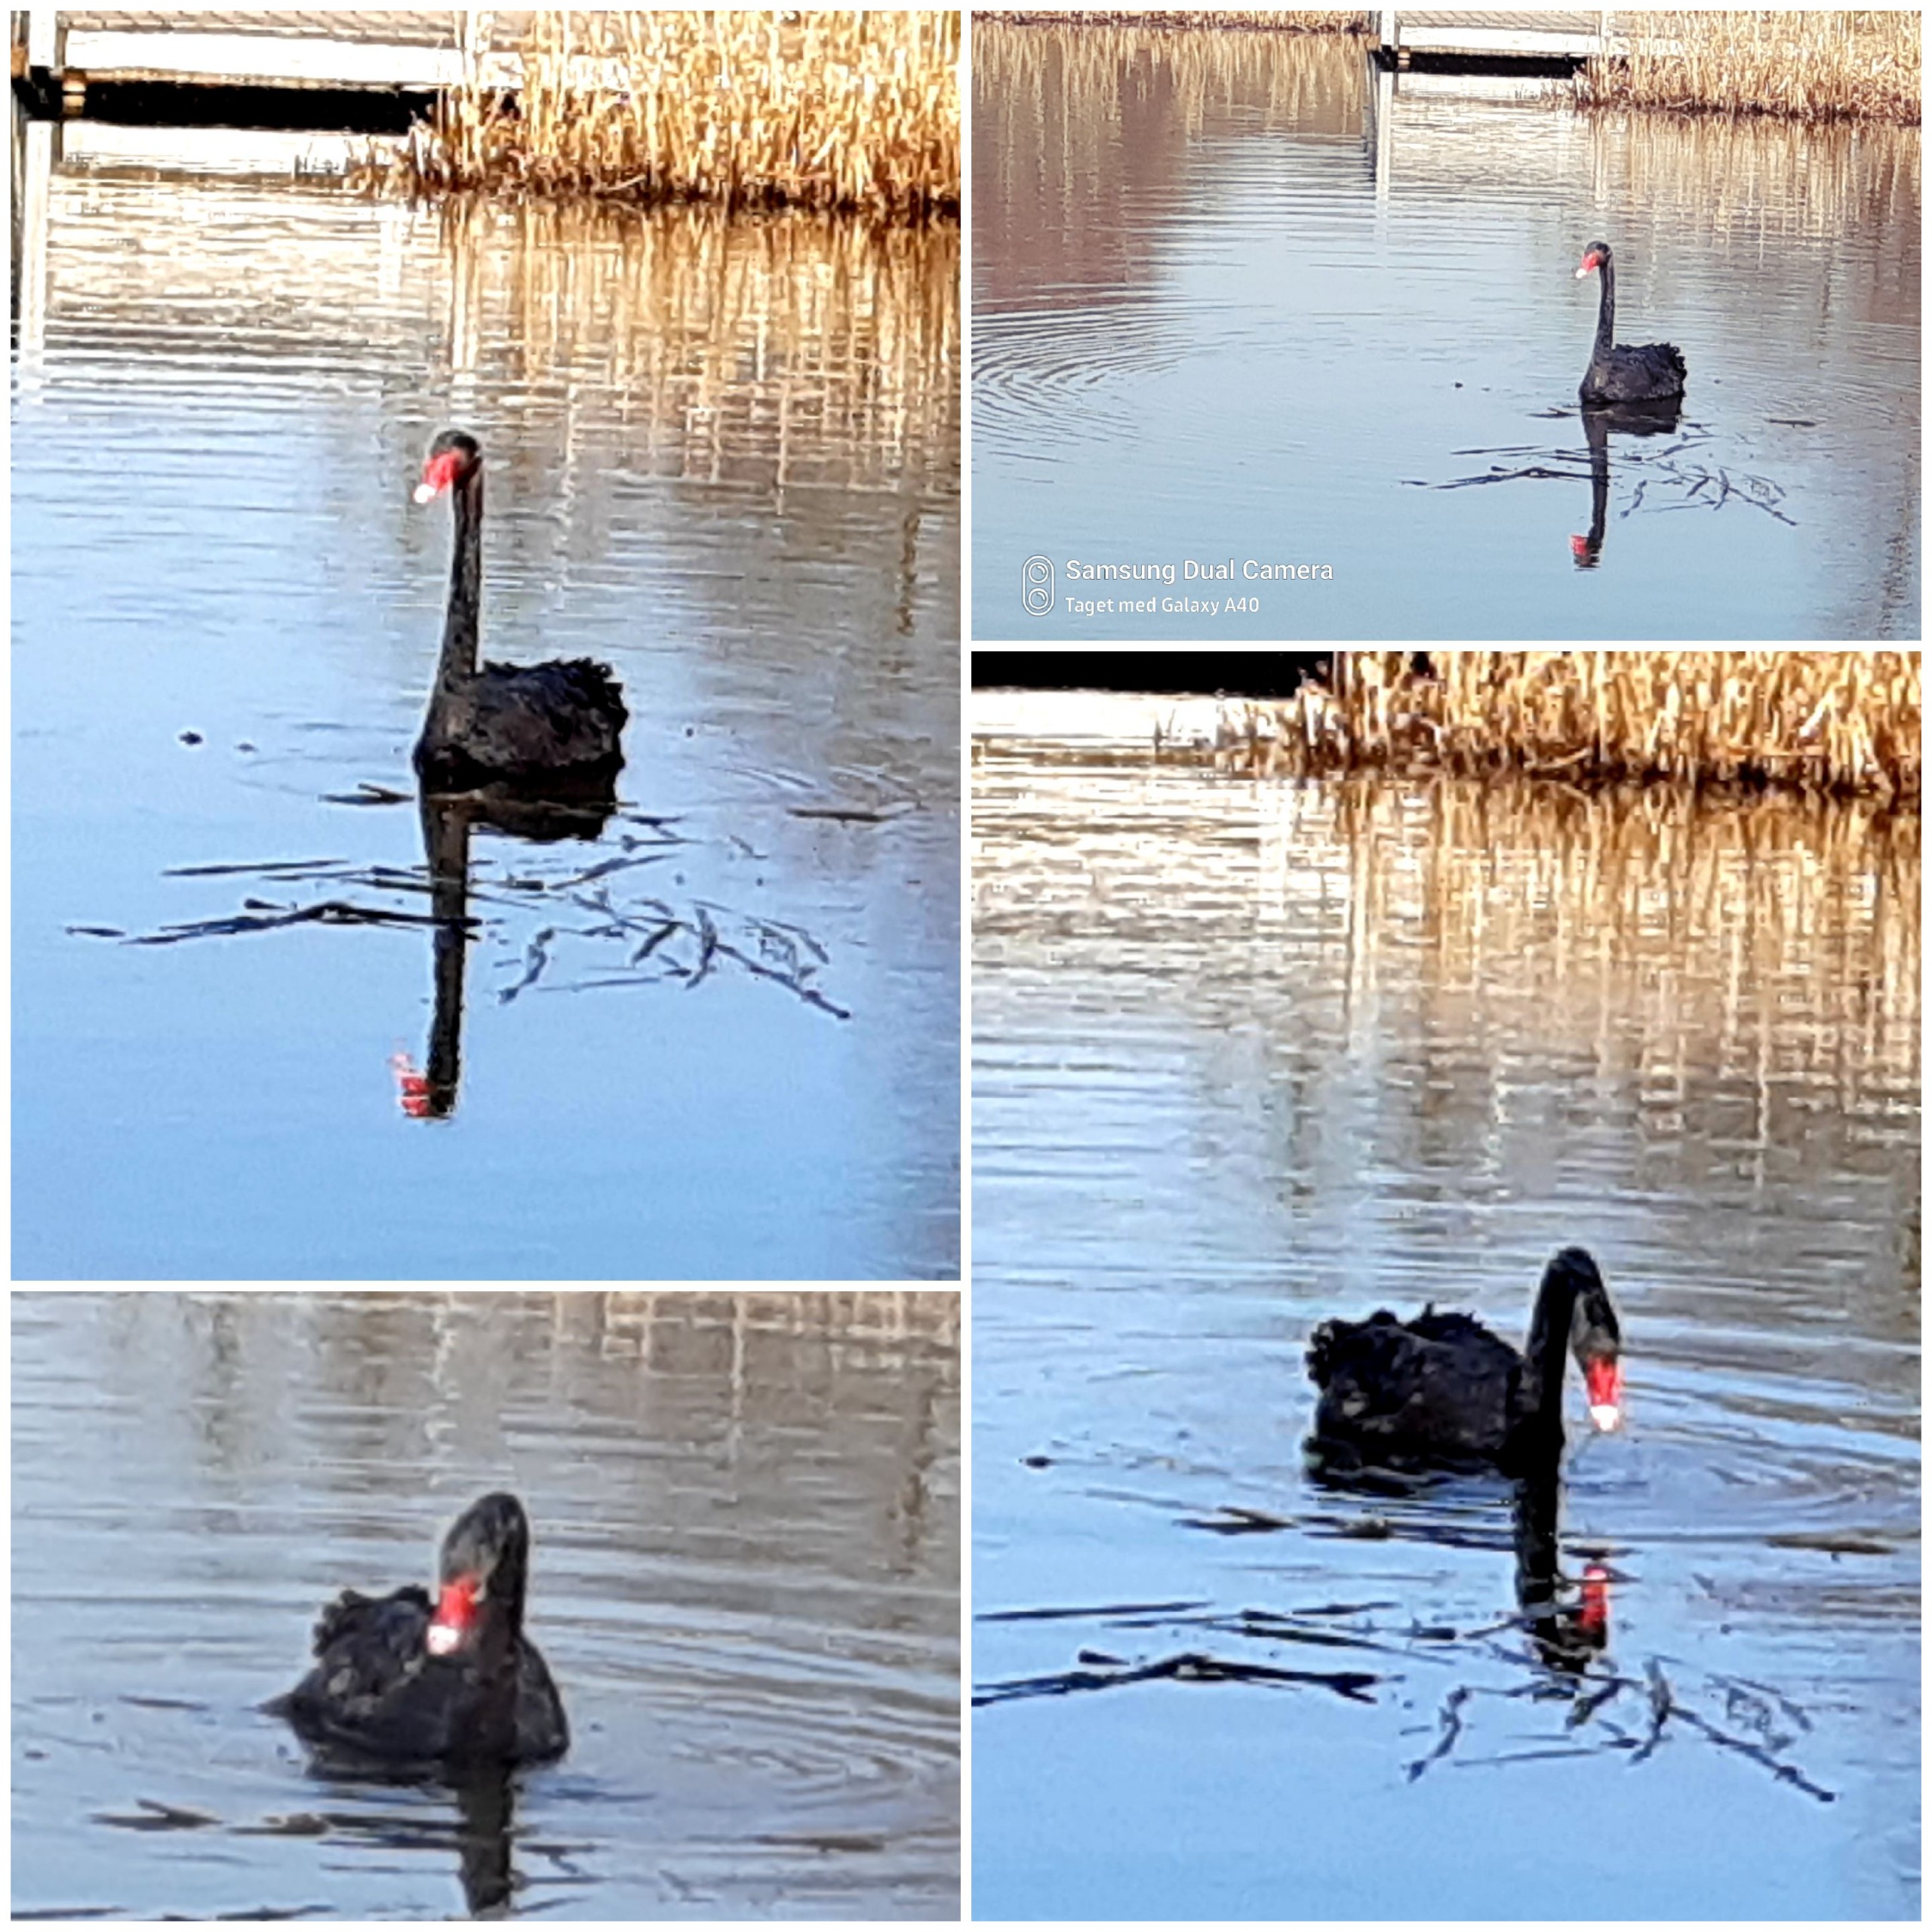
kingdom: Animalia
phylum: Chordata
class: Aves
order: Anseriformes
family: Anatidae
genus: Cygnus
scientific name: Cygnus atratus
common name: Sortsvane
